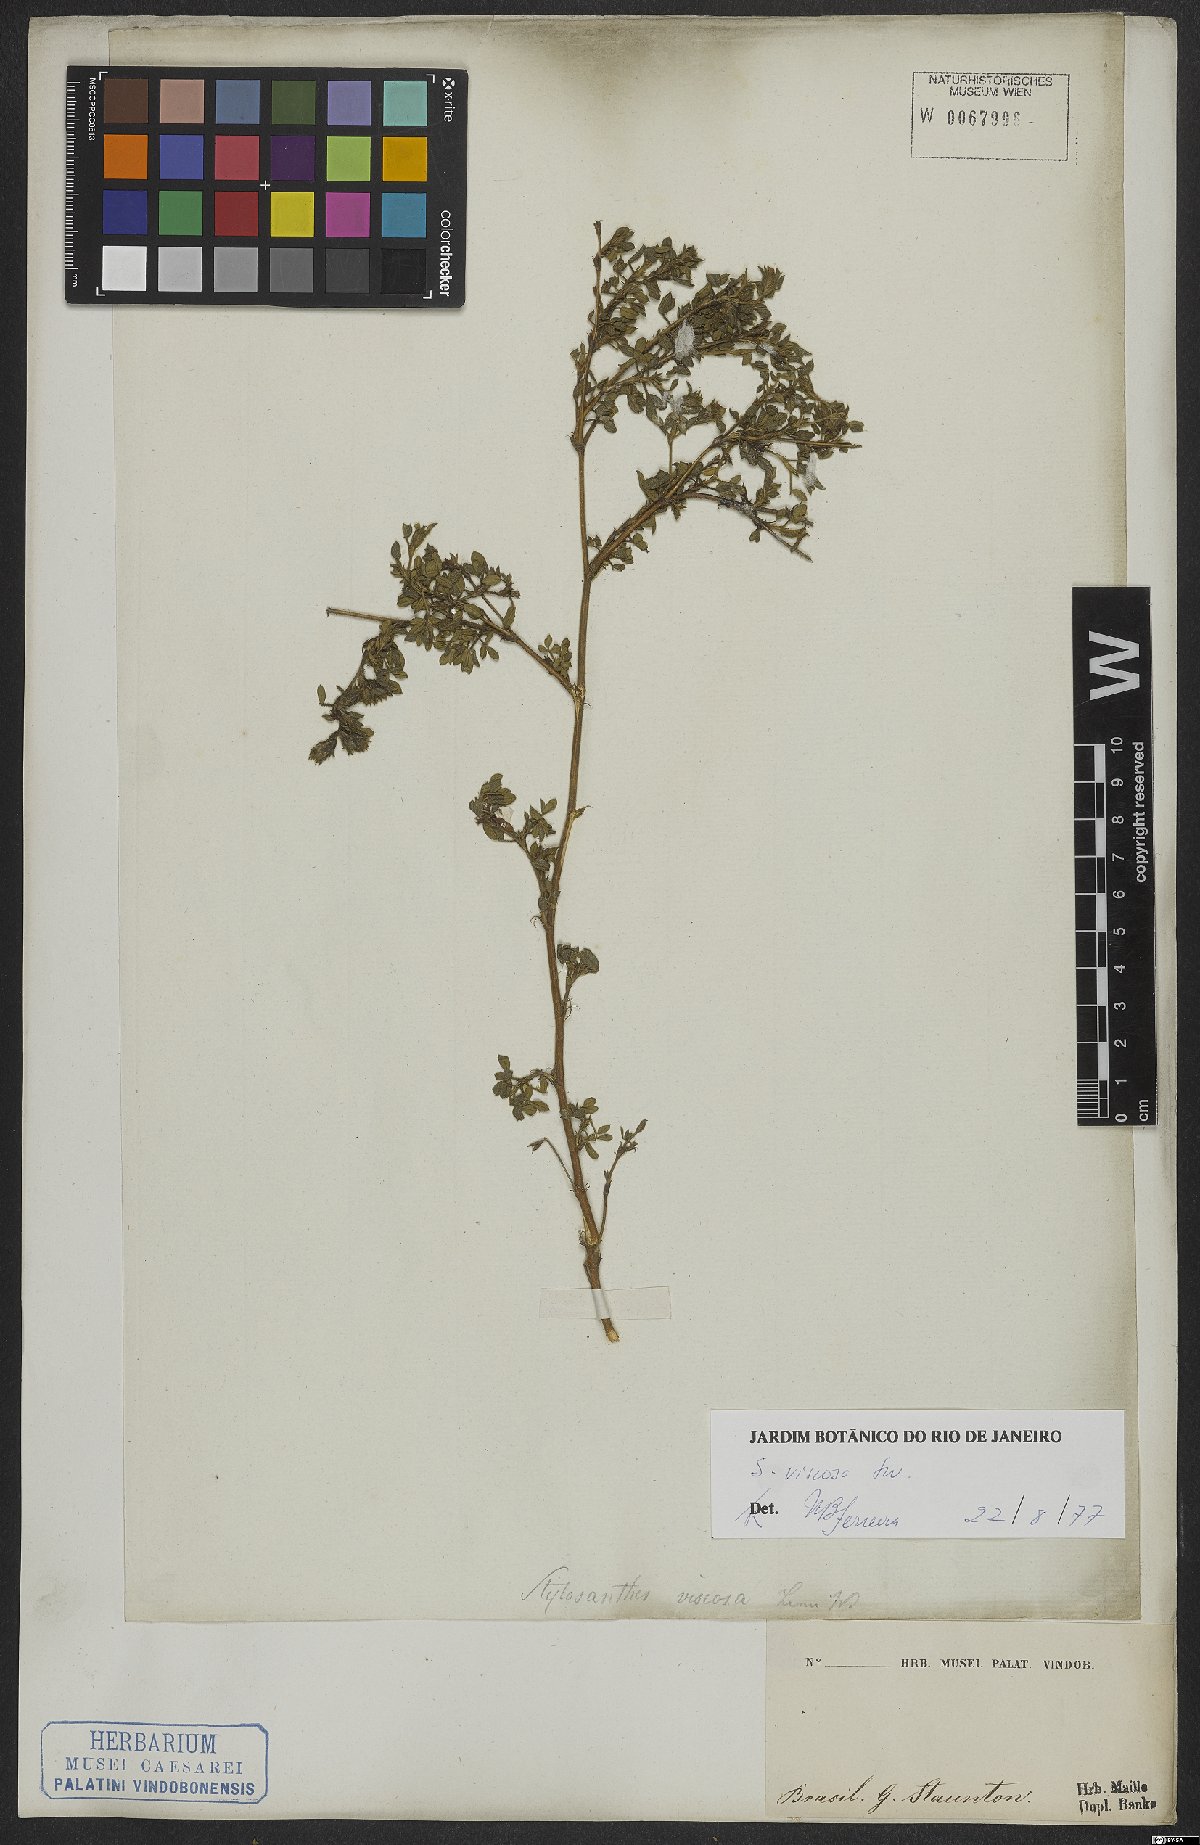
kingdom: Plantae
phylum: Tracheophyta
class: Magnoliopsida
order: Fabales
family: Fabaceae
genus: Stylosanthes
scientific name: Stylosanthes viscosa
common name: Viscid pencil-flower
